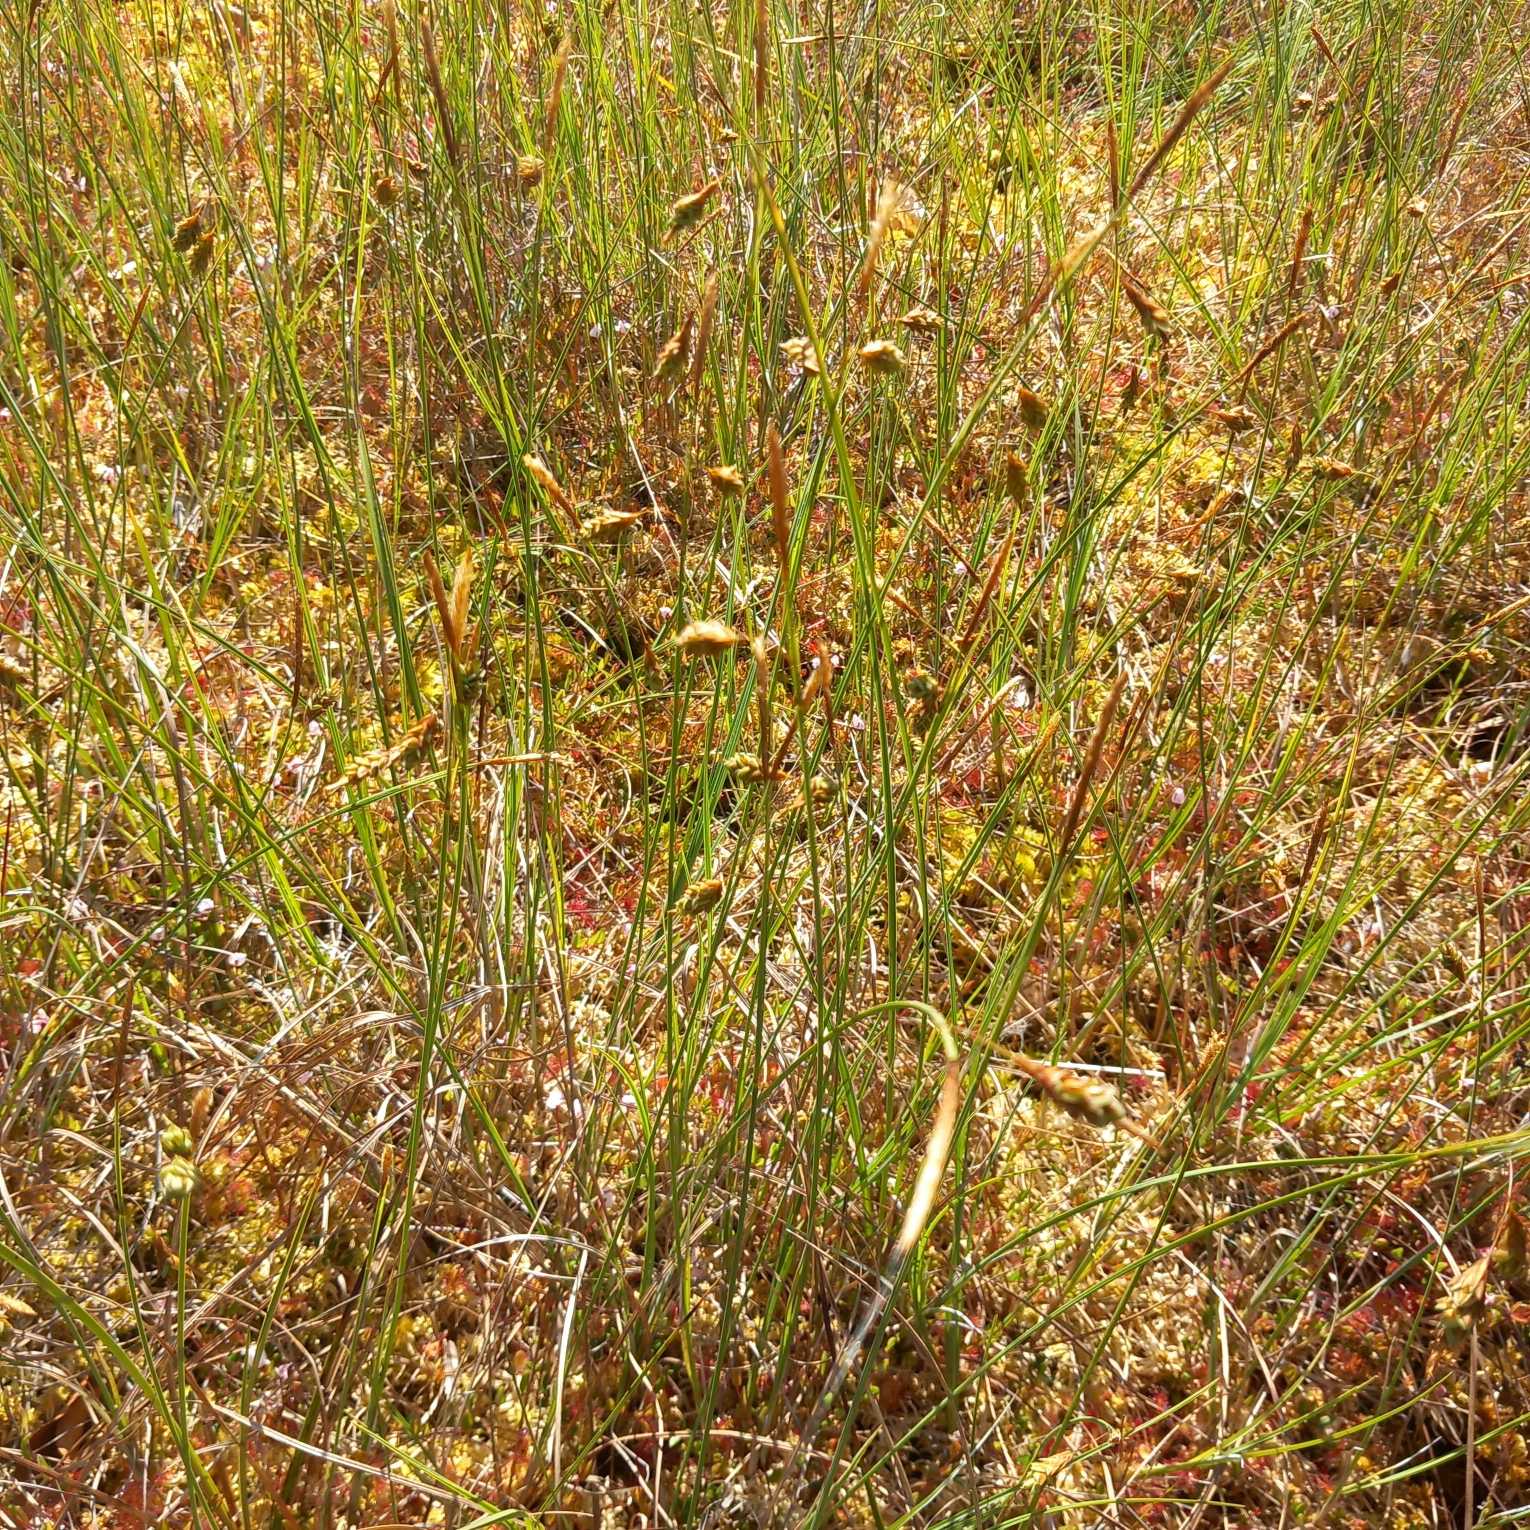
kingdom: Plantae
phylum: Tracheophyta
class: Liliopsida
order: Poales
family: Cyperaceae
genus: Carex
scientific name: Carex limosa
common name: Dynd-star
